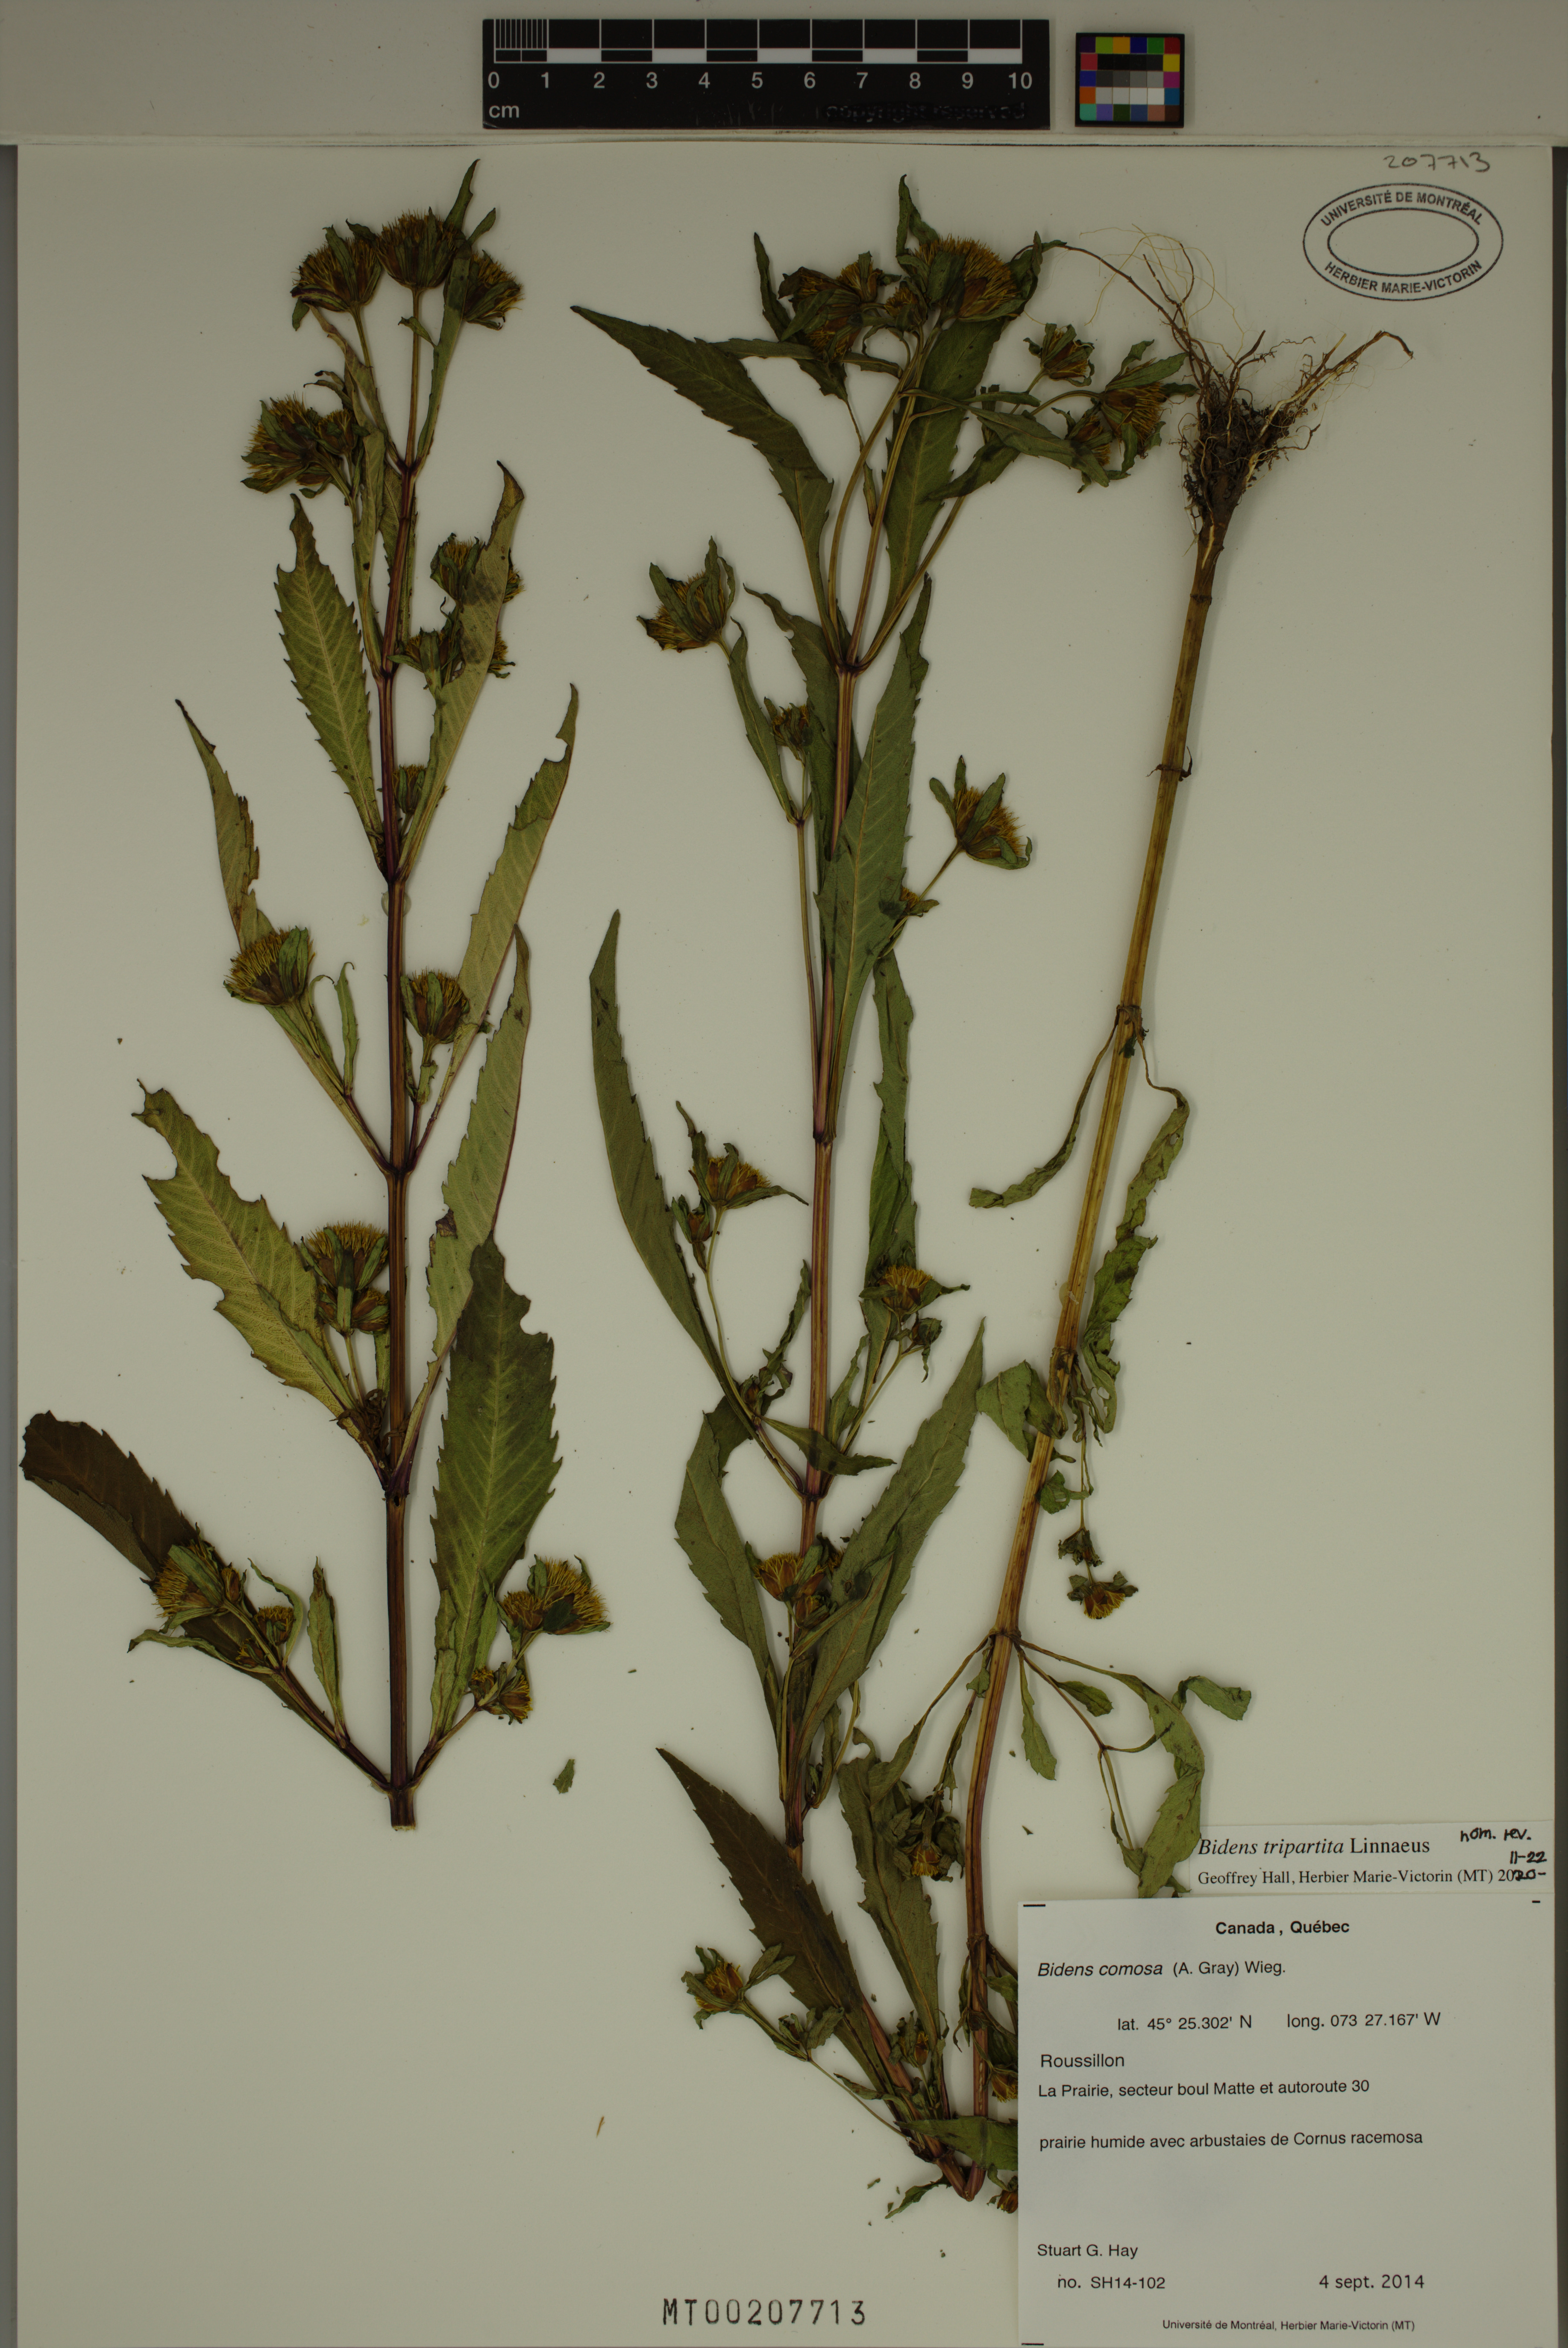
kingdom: Plantae
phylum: Tracheophyta
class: Magnoliopsida
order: Asterales
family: Asteraceae
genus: Bidens
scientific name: Bidens tripartita
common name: Trifid bur-marigold
